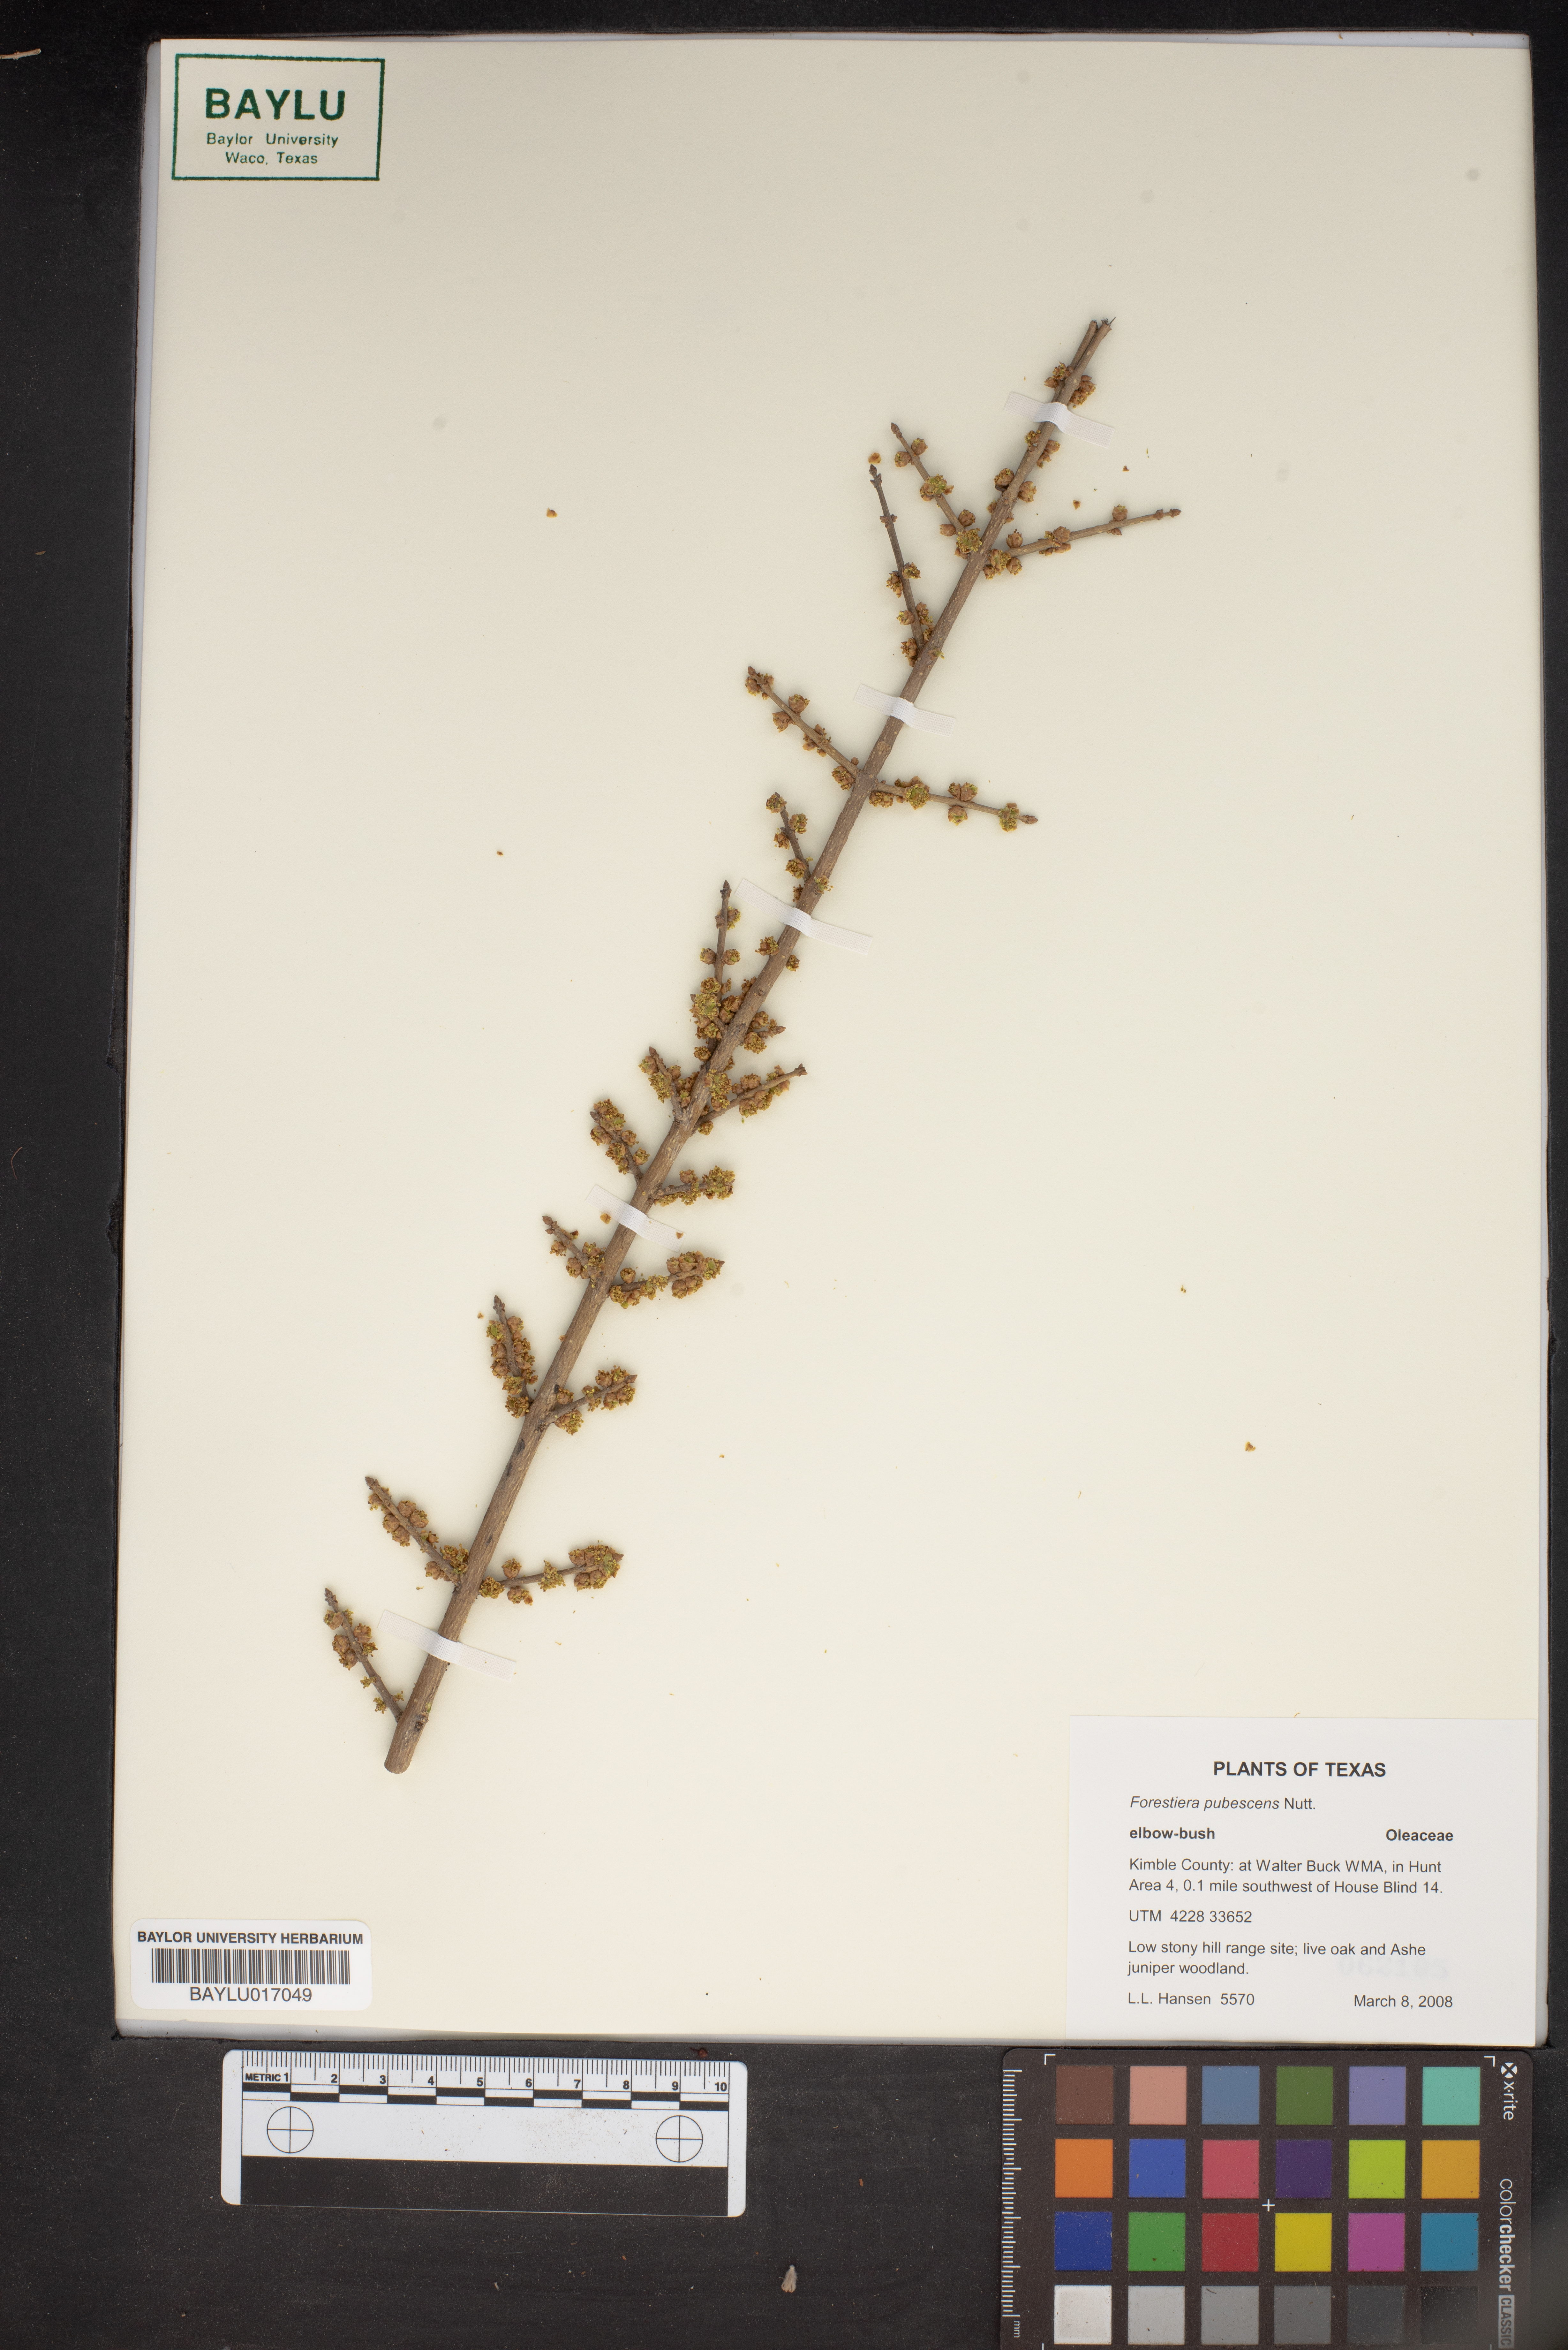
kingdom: Plantae
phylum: Tracheophyta
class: Magnoliopsida
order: Lamiales
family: Oleaceae
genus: Forestiera
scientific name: Forestiera pubescens
